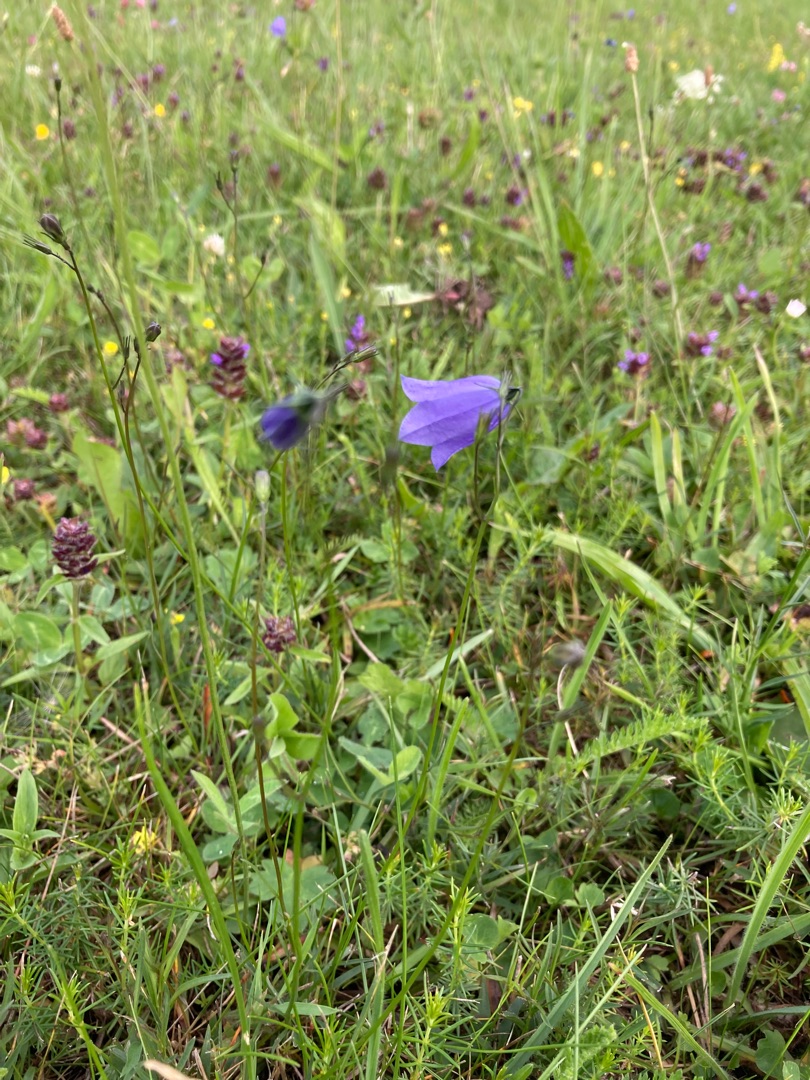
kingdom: Plantae
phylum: Tracheophyta
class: Magnoliopsida
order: Asterales
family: Campanulaceae
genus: Campanula
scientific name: Campanula rotundifolia
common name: Liden klokke
